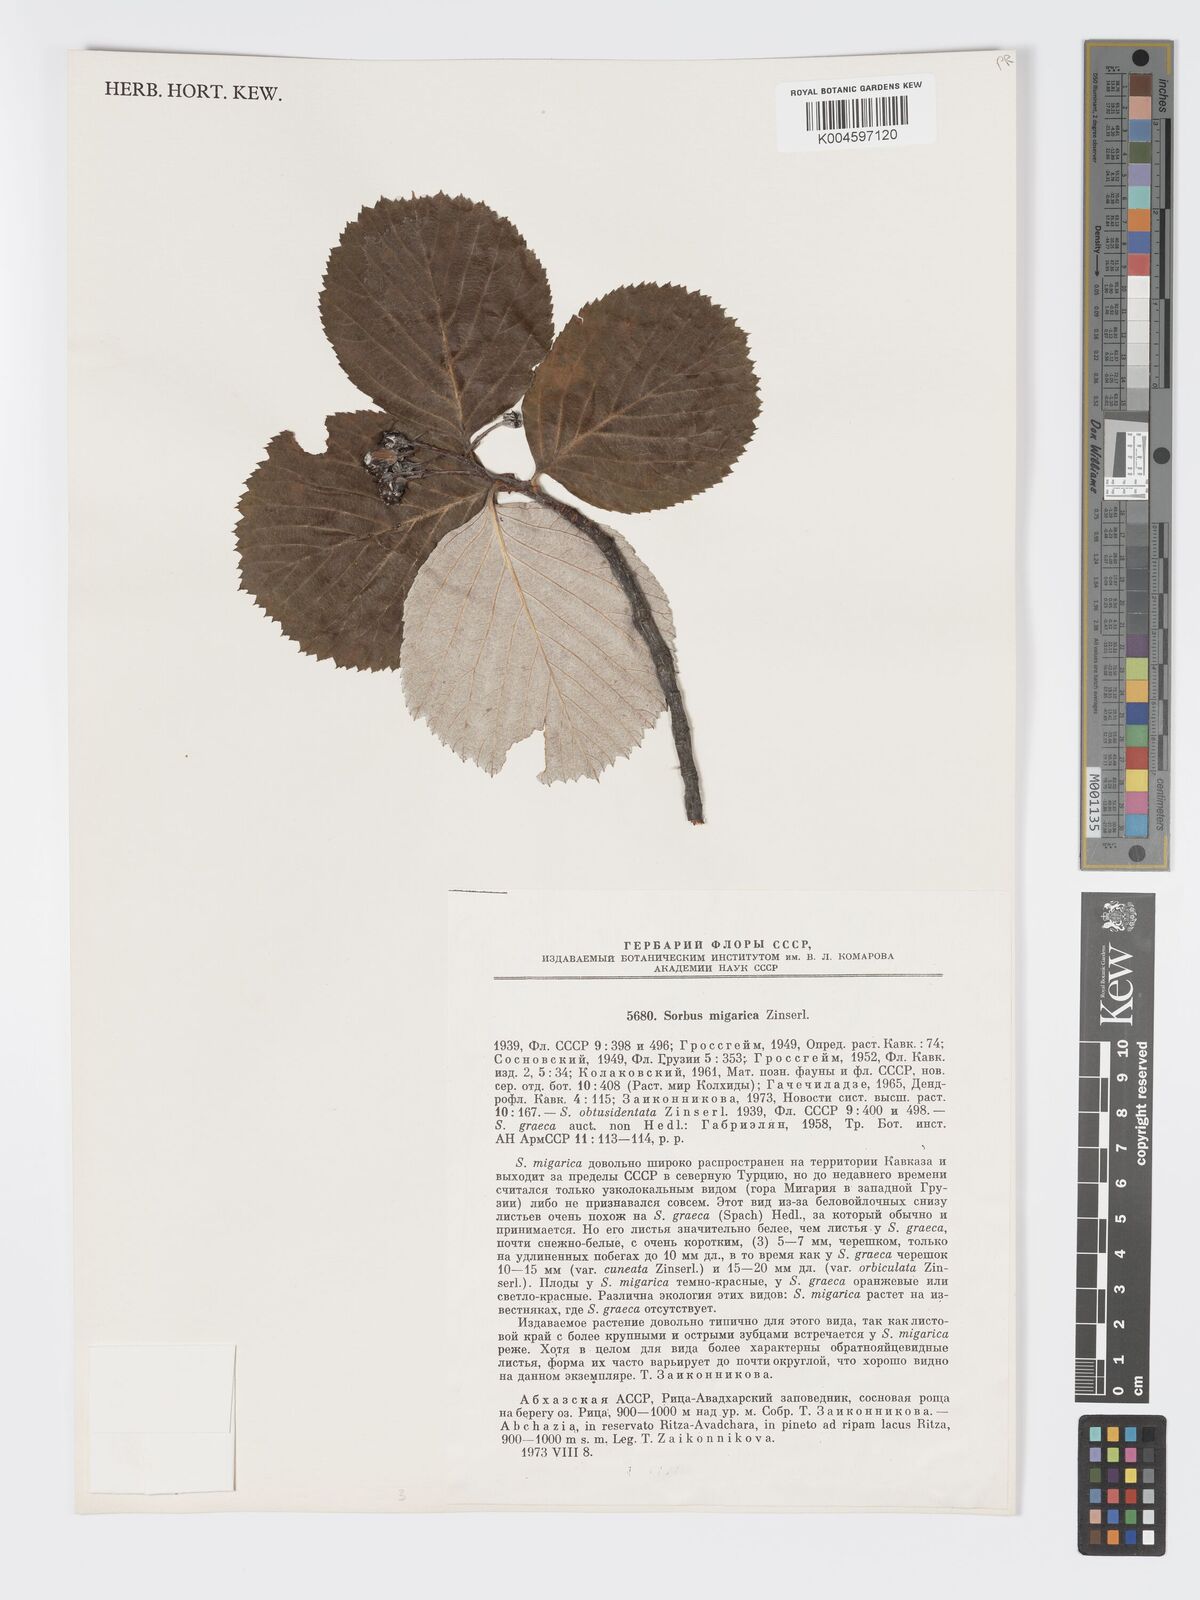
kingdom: Plantae
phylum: Tracheophyta
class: Magnoliopsida
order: Rosales
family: Rosaceae
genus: Aria
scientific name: Aria graeca
